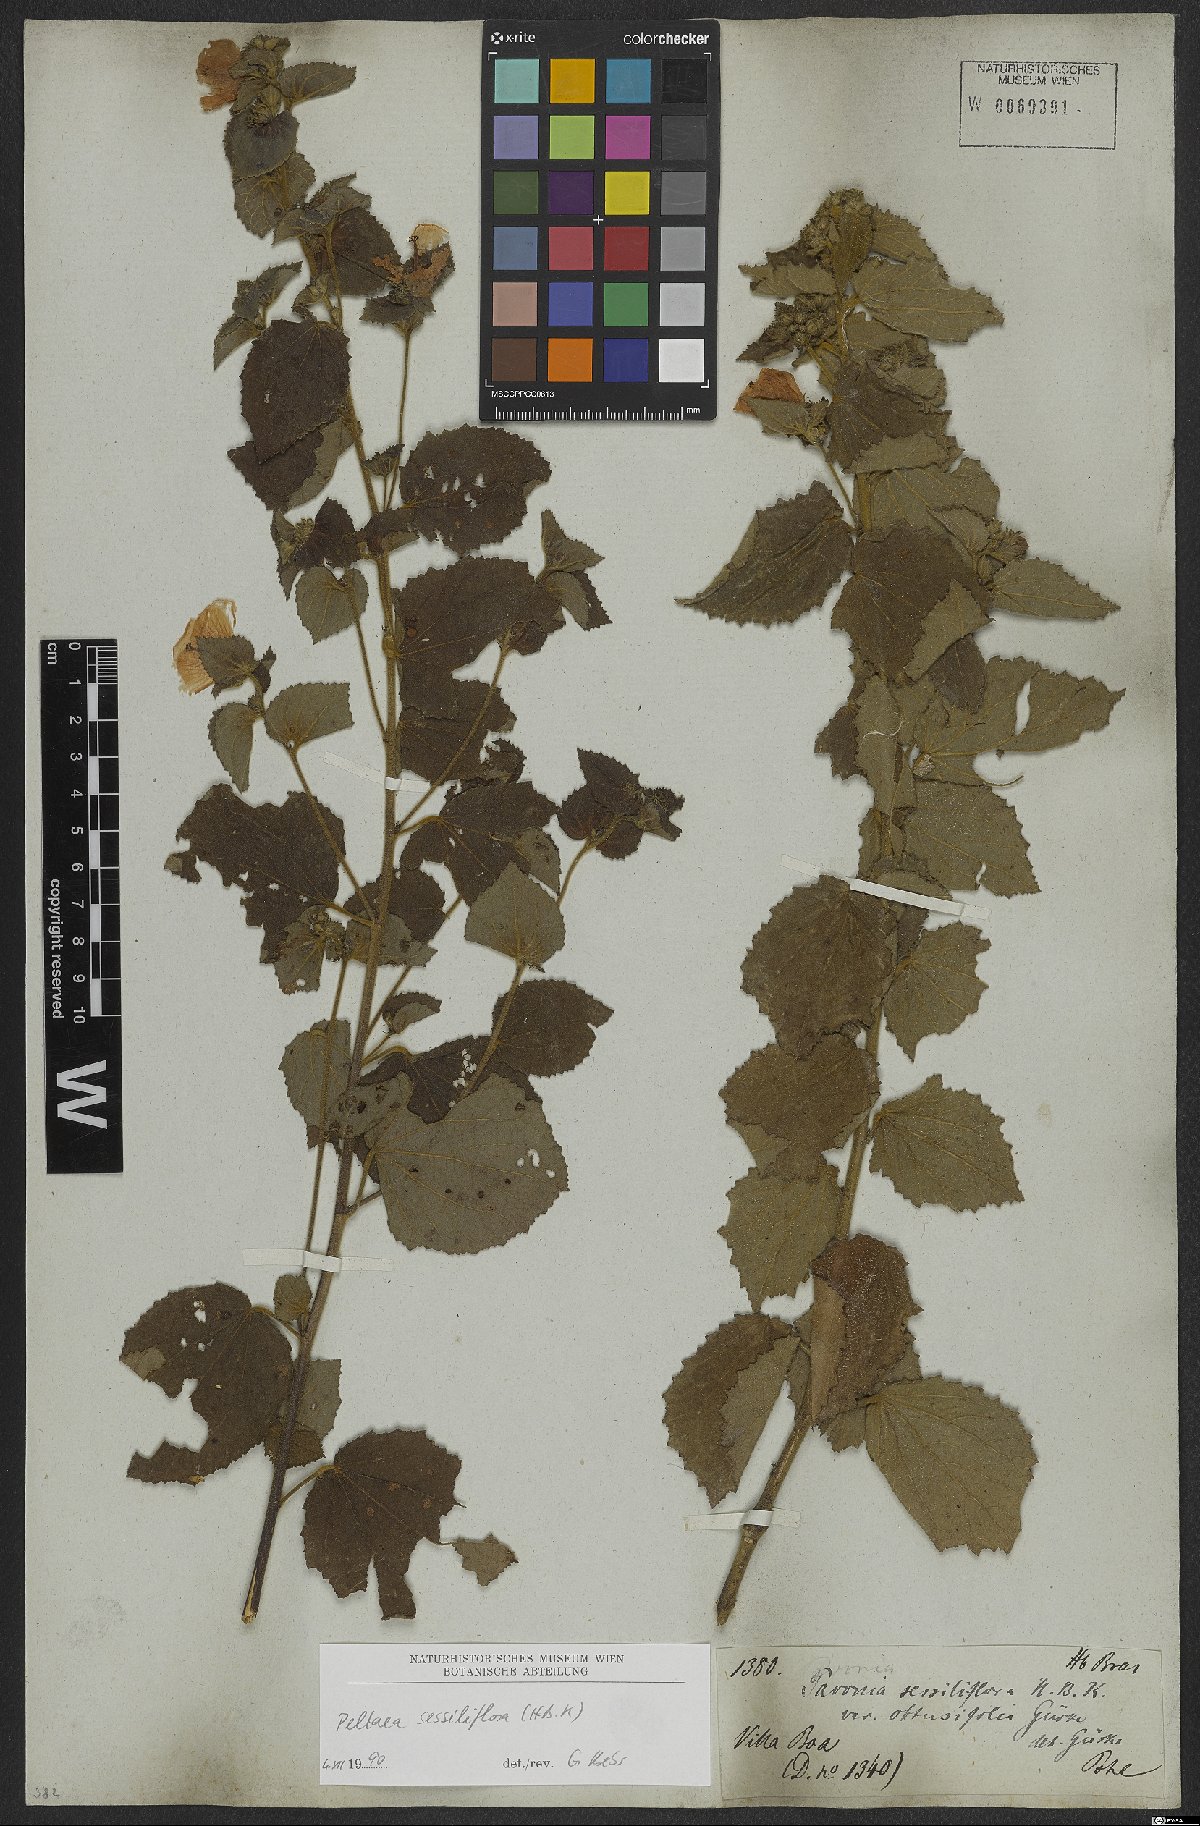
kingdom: Plantae
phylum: Tracheophyta
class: Magnoliopsida
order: Malvales
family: Malvaceae
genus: Peltaea
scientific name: Peltaea sessiliflora
